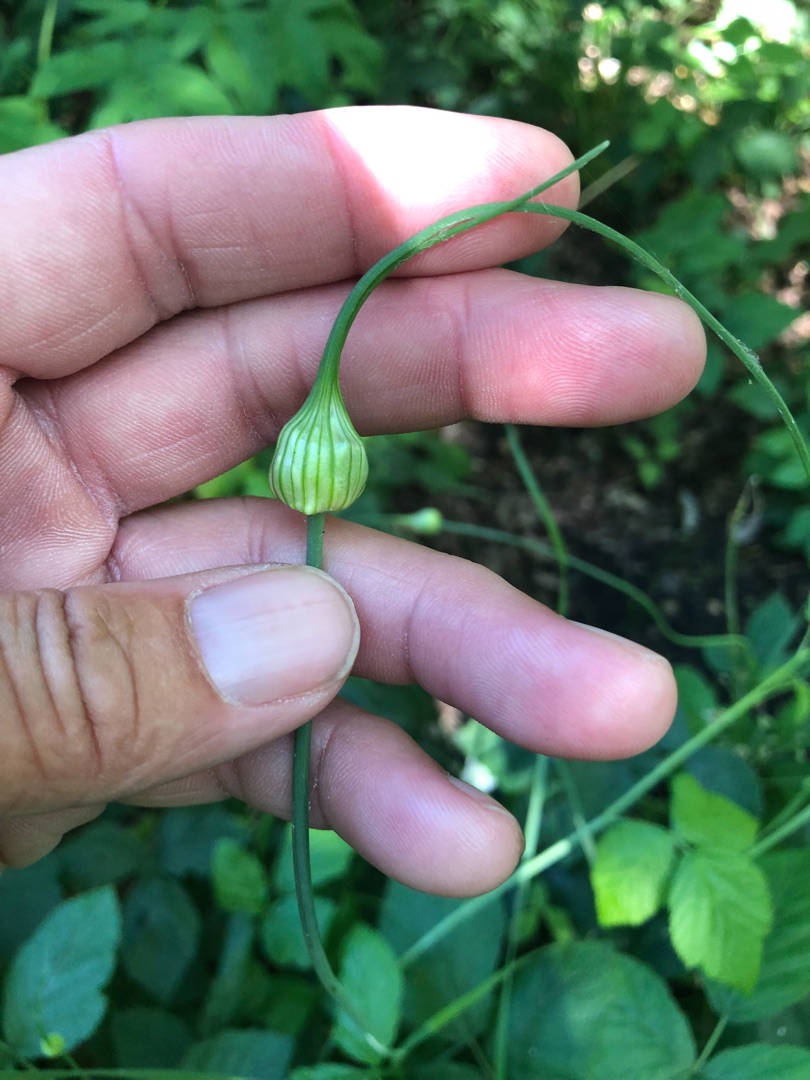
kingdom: Plantae
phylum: Tracheophyta
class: Liliopsida
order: Asparagales
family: Amaryllidaceae
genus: Allium
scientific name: Allium oleraceum
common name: Vild løg
